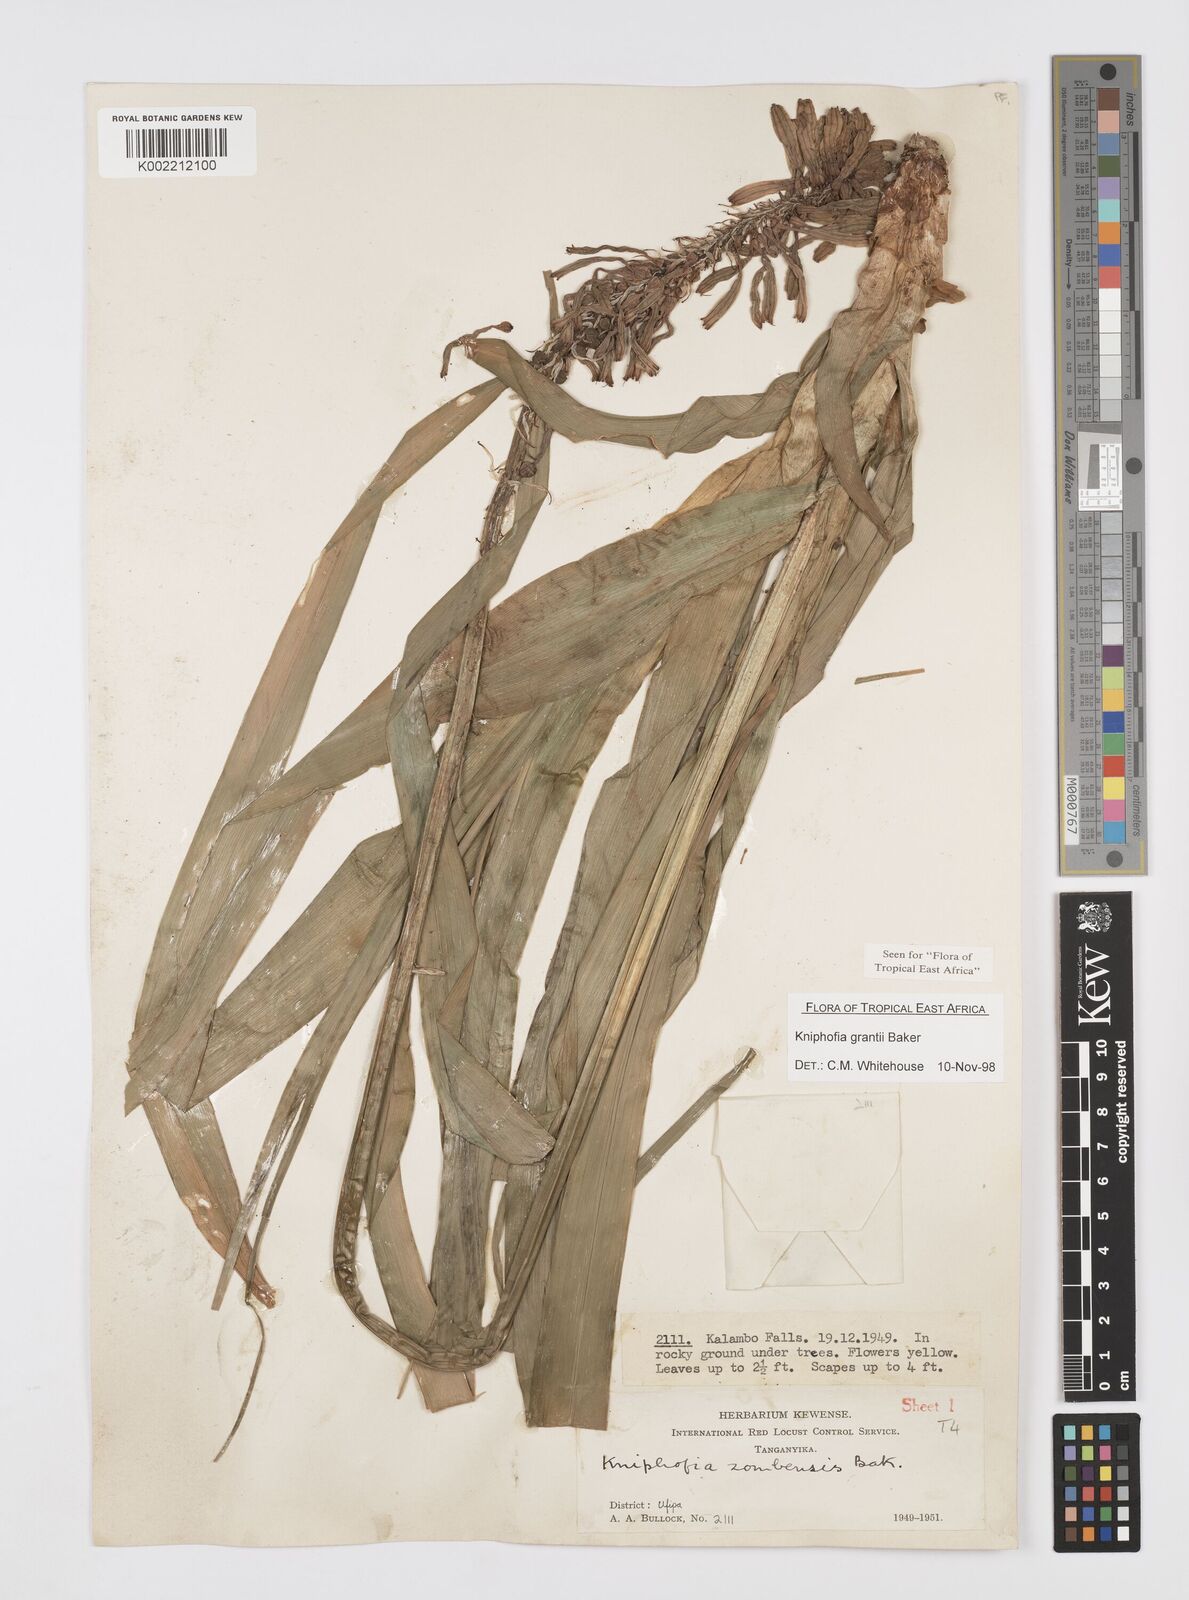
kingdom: Plantae
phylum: Tracheophyta
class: Liliopsida
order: Asparagales
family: Asphodelaceae
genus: Kniphofia
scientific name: Kniphofia grantii
